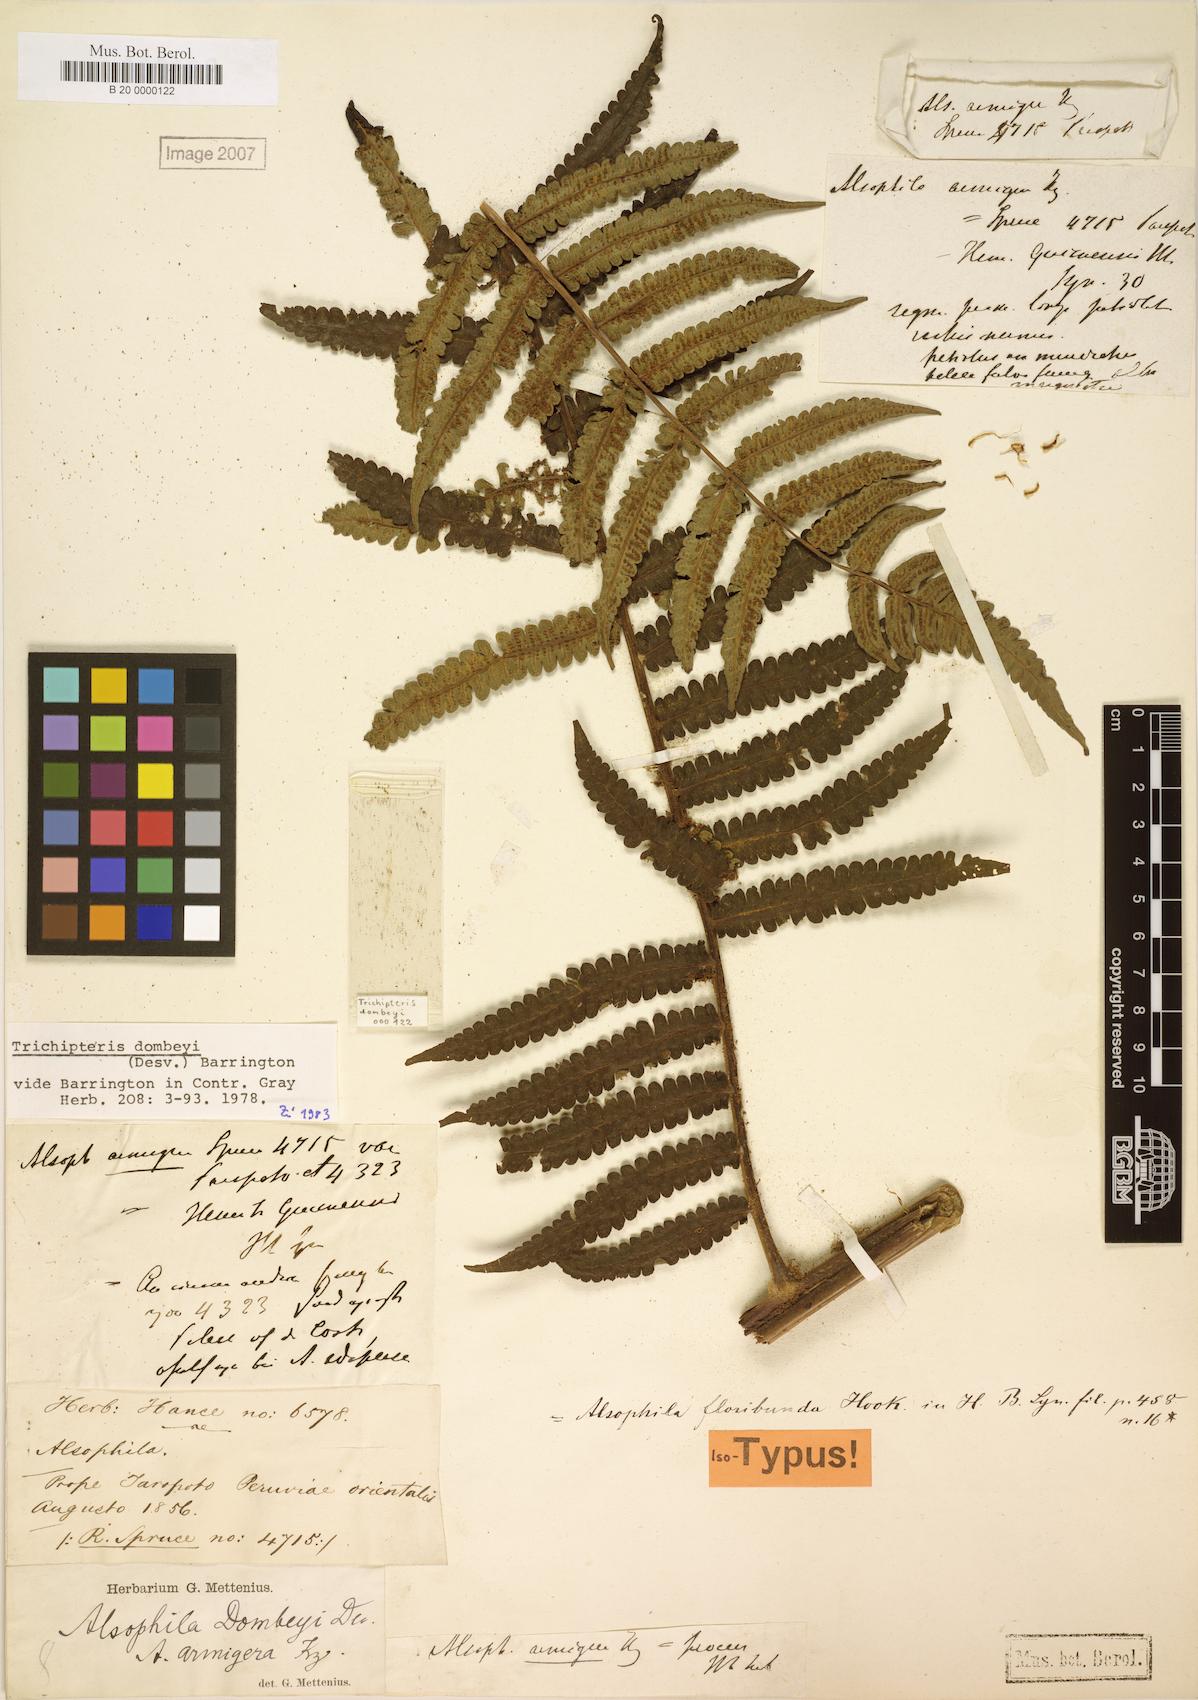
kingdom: Plantae
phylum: Tracheophyta
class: Polypodiopsida
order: Cyatheales
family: Cyatheaceae
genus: Cyathea
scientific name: Cyathea dombeyi
